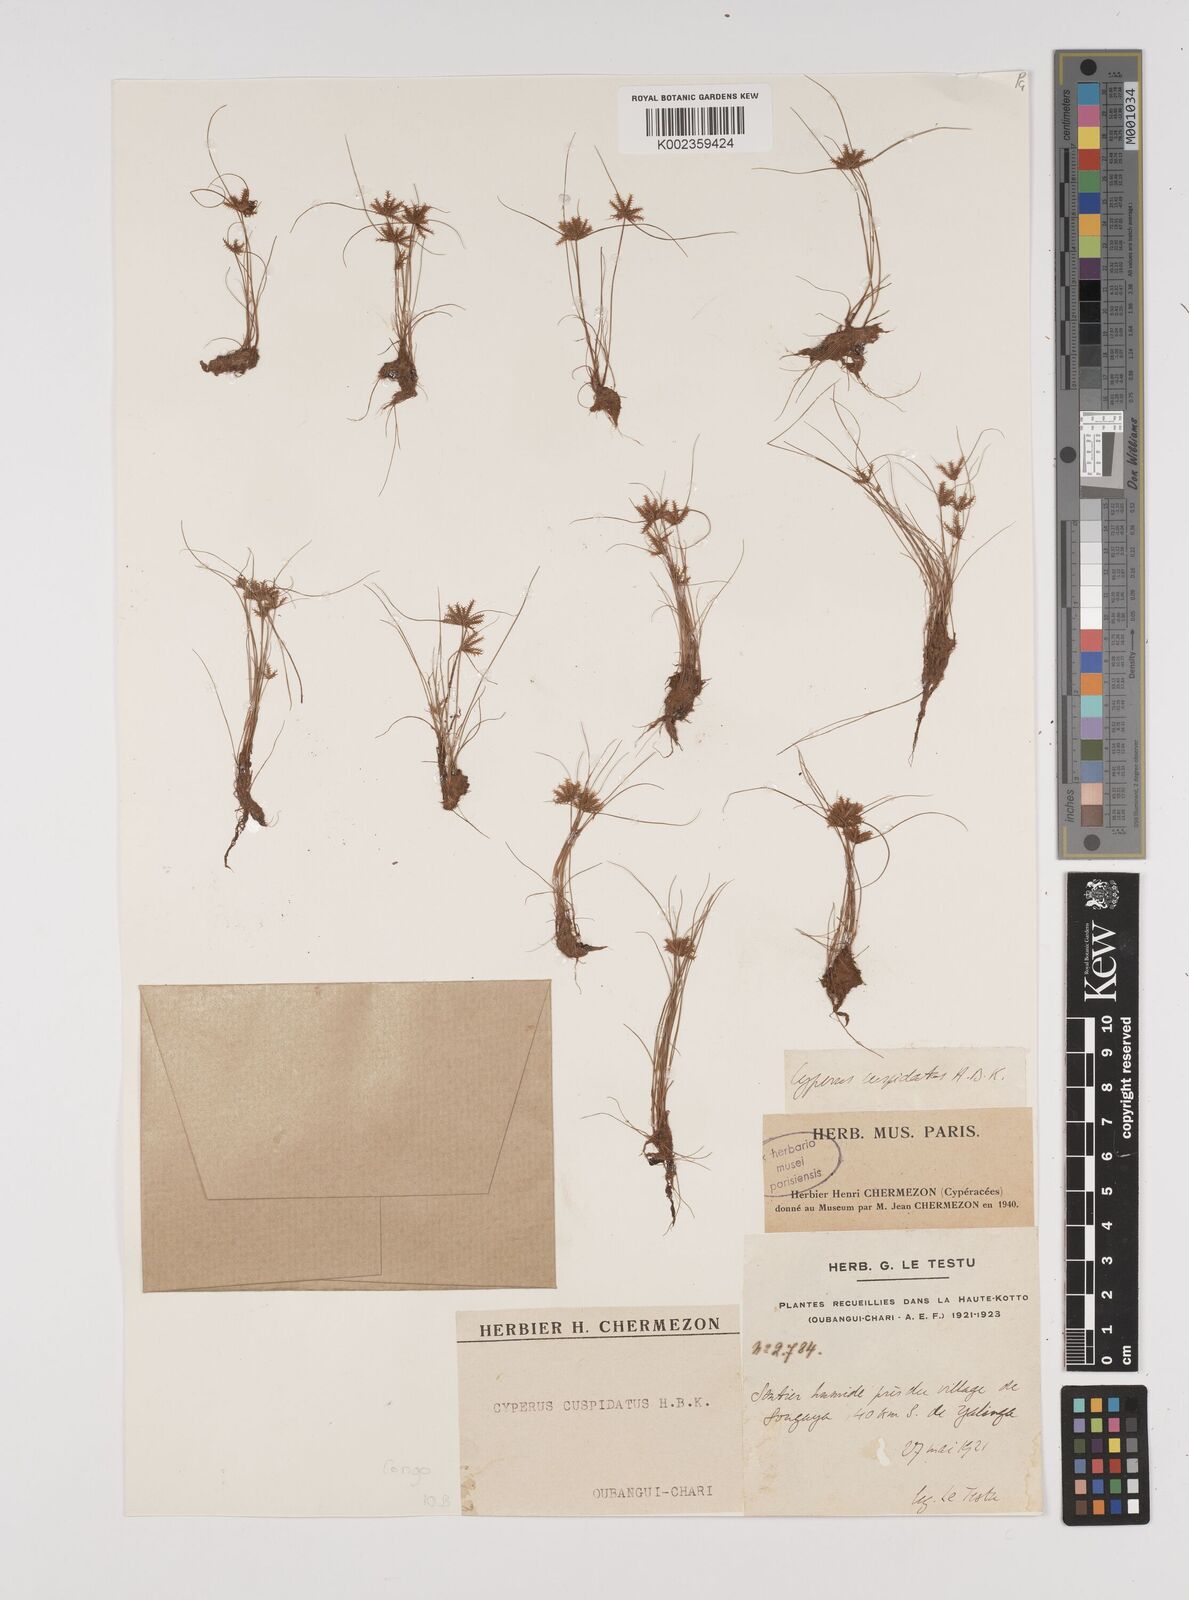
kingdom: Plantae
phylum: Tracheophyta
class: Liliopsida
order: Poales
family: Cyperaceae
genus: Cyperus
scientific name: Cyperus cuspidatus
